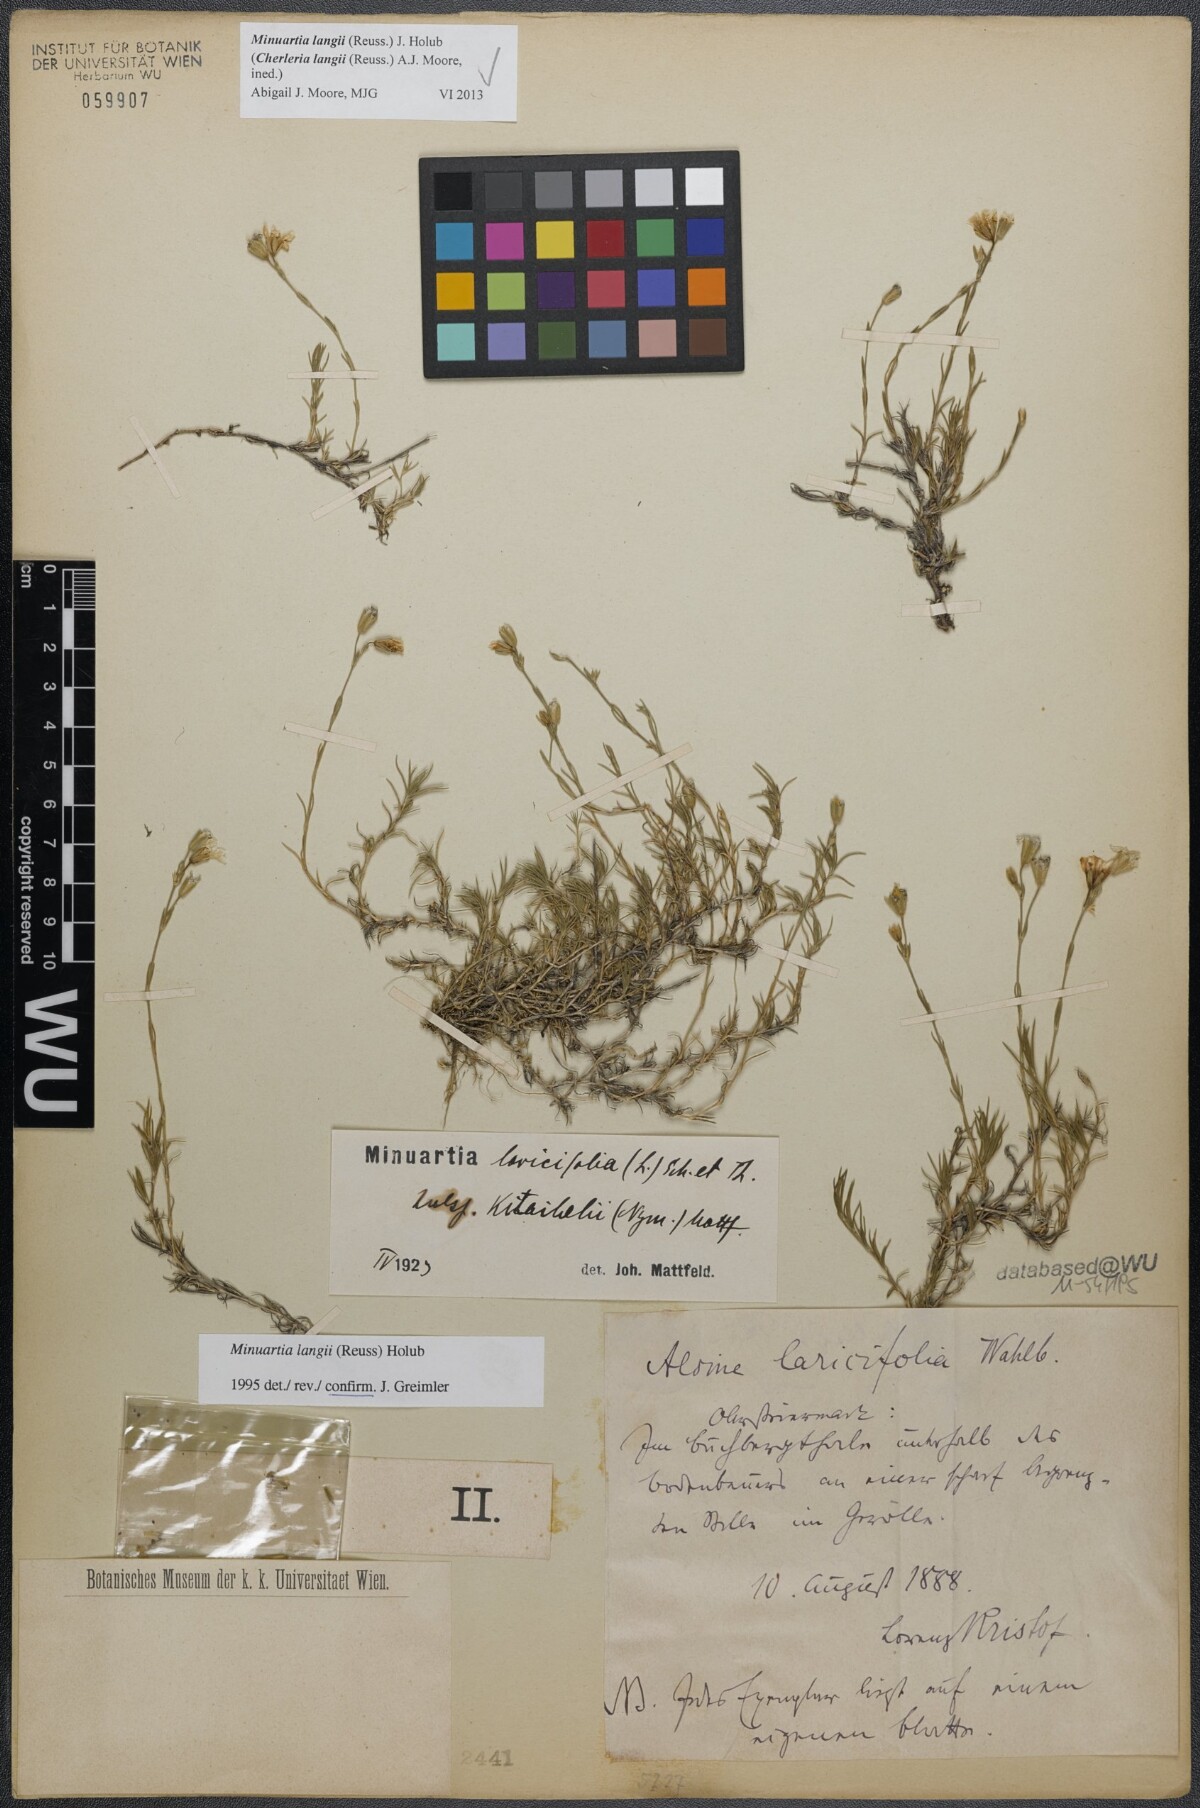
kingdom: Plantae
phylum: Tracheophyta
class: Magnoliopsida
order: Caryophyllales
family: Caryophyllaceae
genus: Cherleria
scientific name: Cherleria langii
